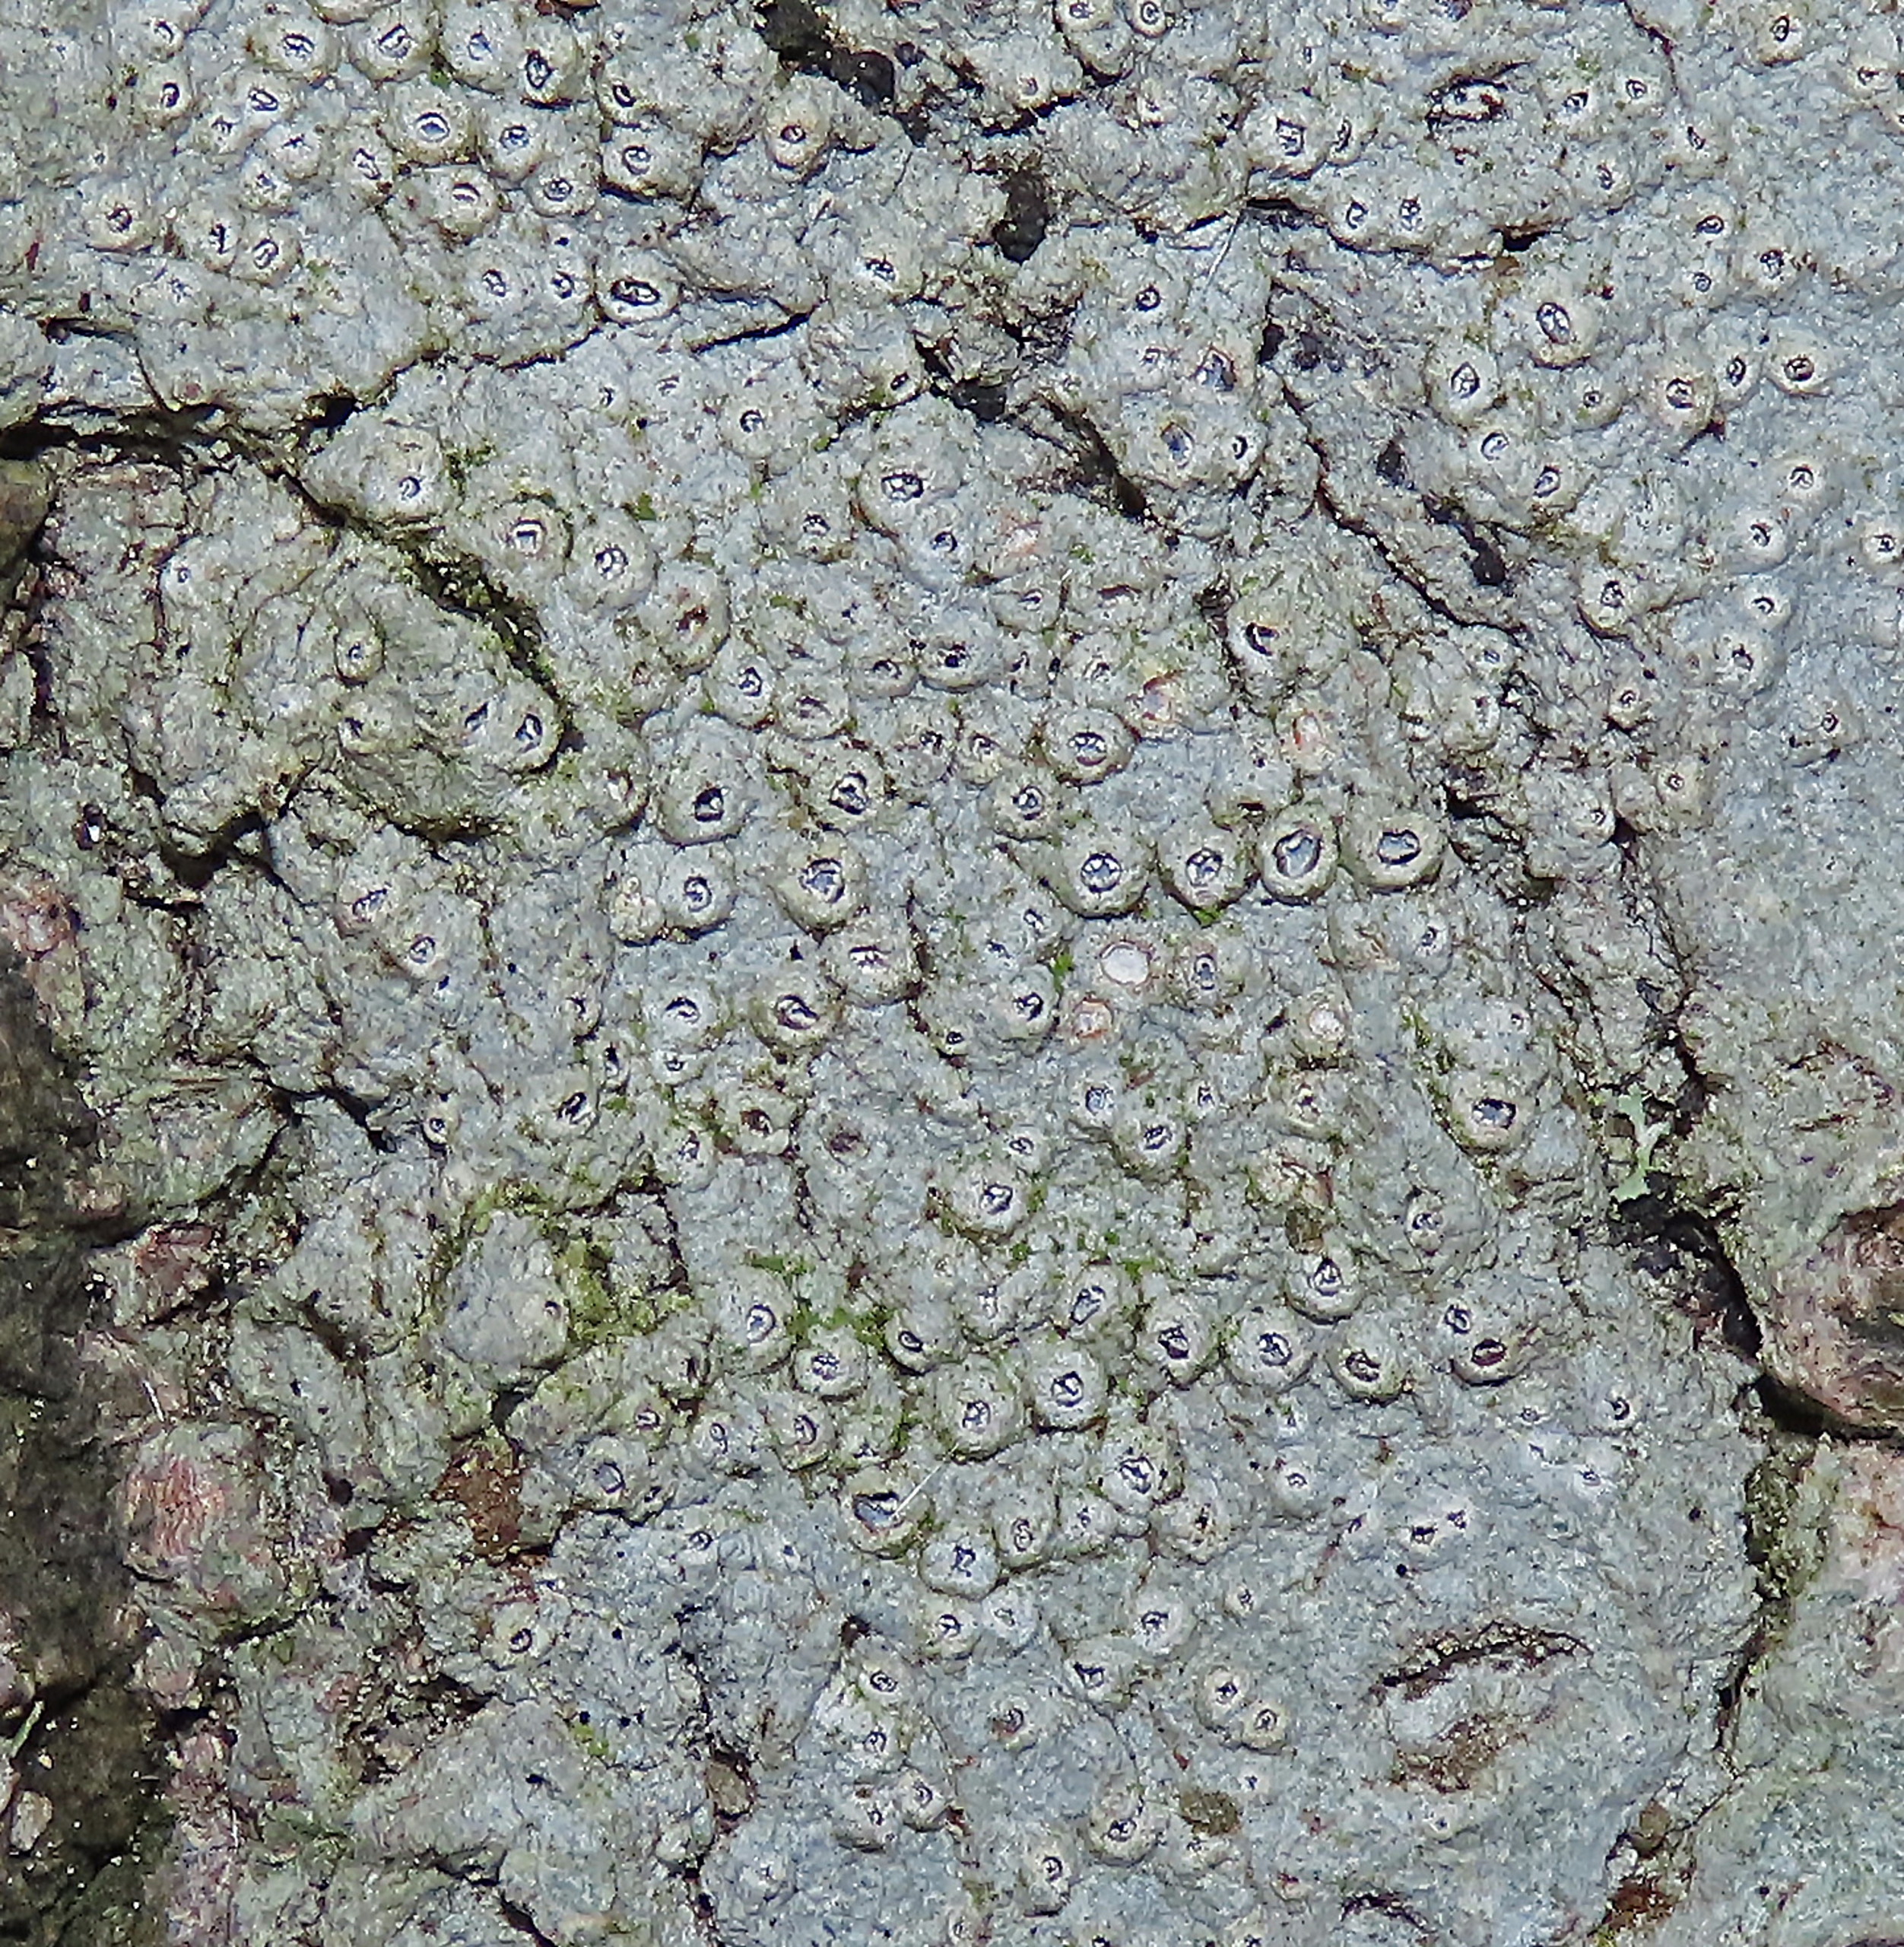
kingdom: Fungi
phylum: Ascomycota
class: Lecanoromycetes
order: Ostropales
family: Graphidaceae
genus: Thelotrema
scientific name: Thelotrema lepadinum
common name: Almindelig slørkantlav
